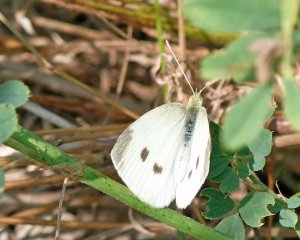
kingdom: Animalia
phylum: Arthropoda
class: Insecta
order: Lepidoptera
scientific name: Lepidoptera
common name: Butterflies
